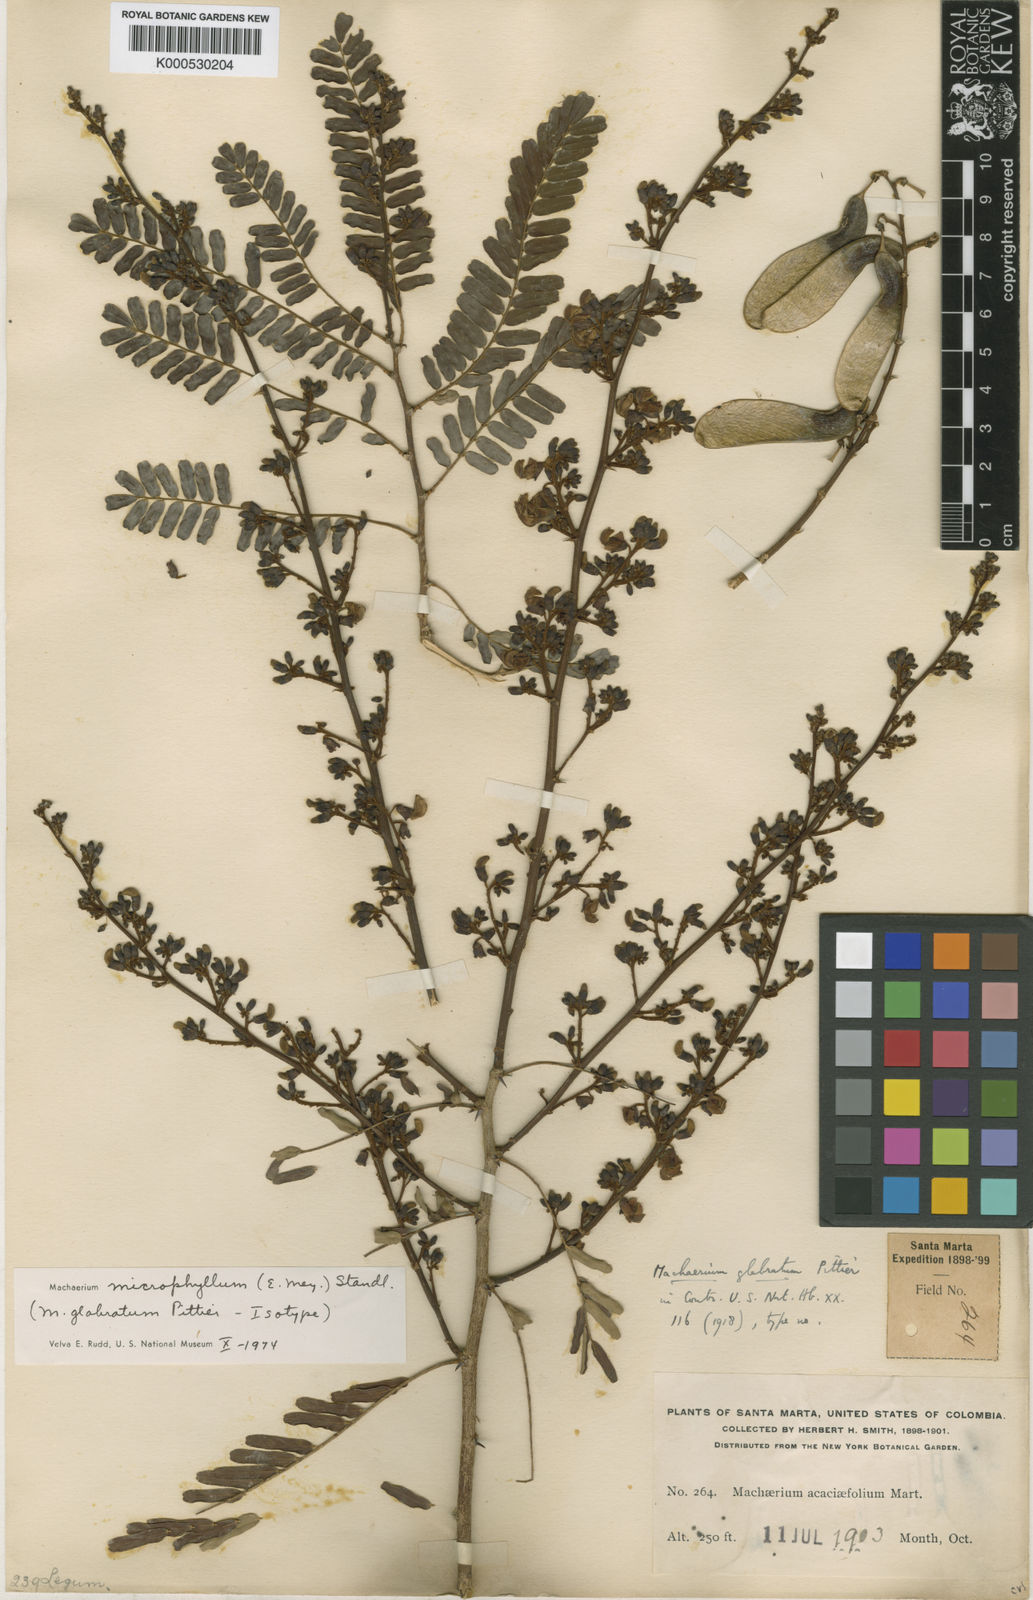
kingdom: Plantae
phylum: Tracheophyta
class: Magnoliopsida
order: Fabales
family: Fabaceae
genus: Machaerium
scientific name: Machaerium isadelphum
